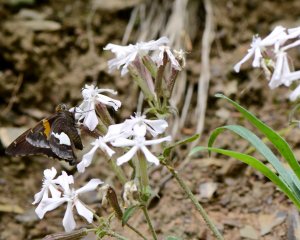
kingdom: Animalia
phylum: Arthropoda
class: Insecta
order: Lepidoptera
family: Hesperiidae
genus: Epargyreus
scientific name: Epargyreus clarus
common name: Silver-spotted Skipper
